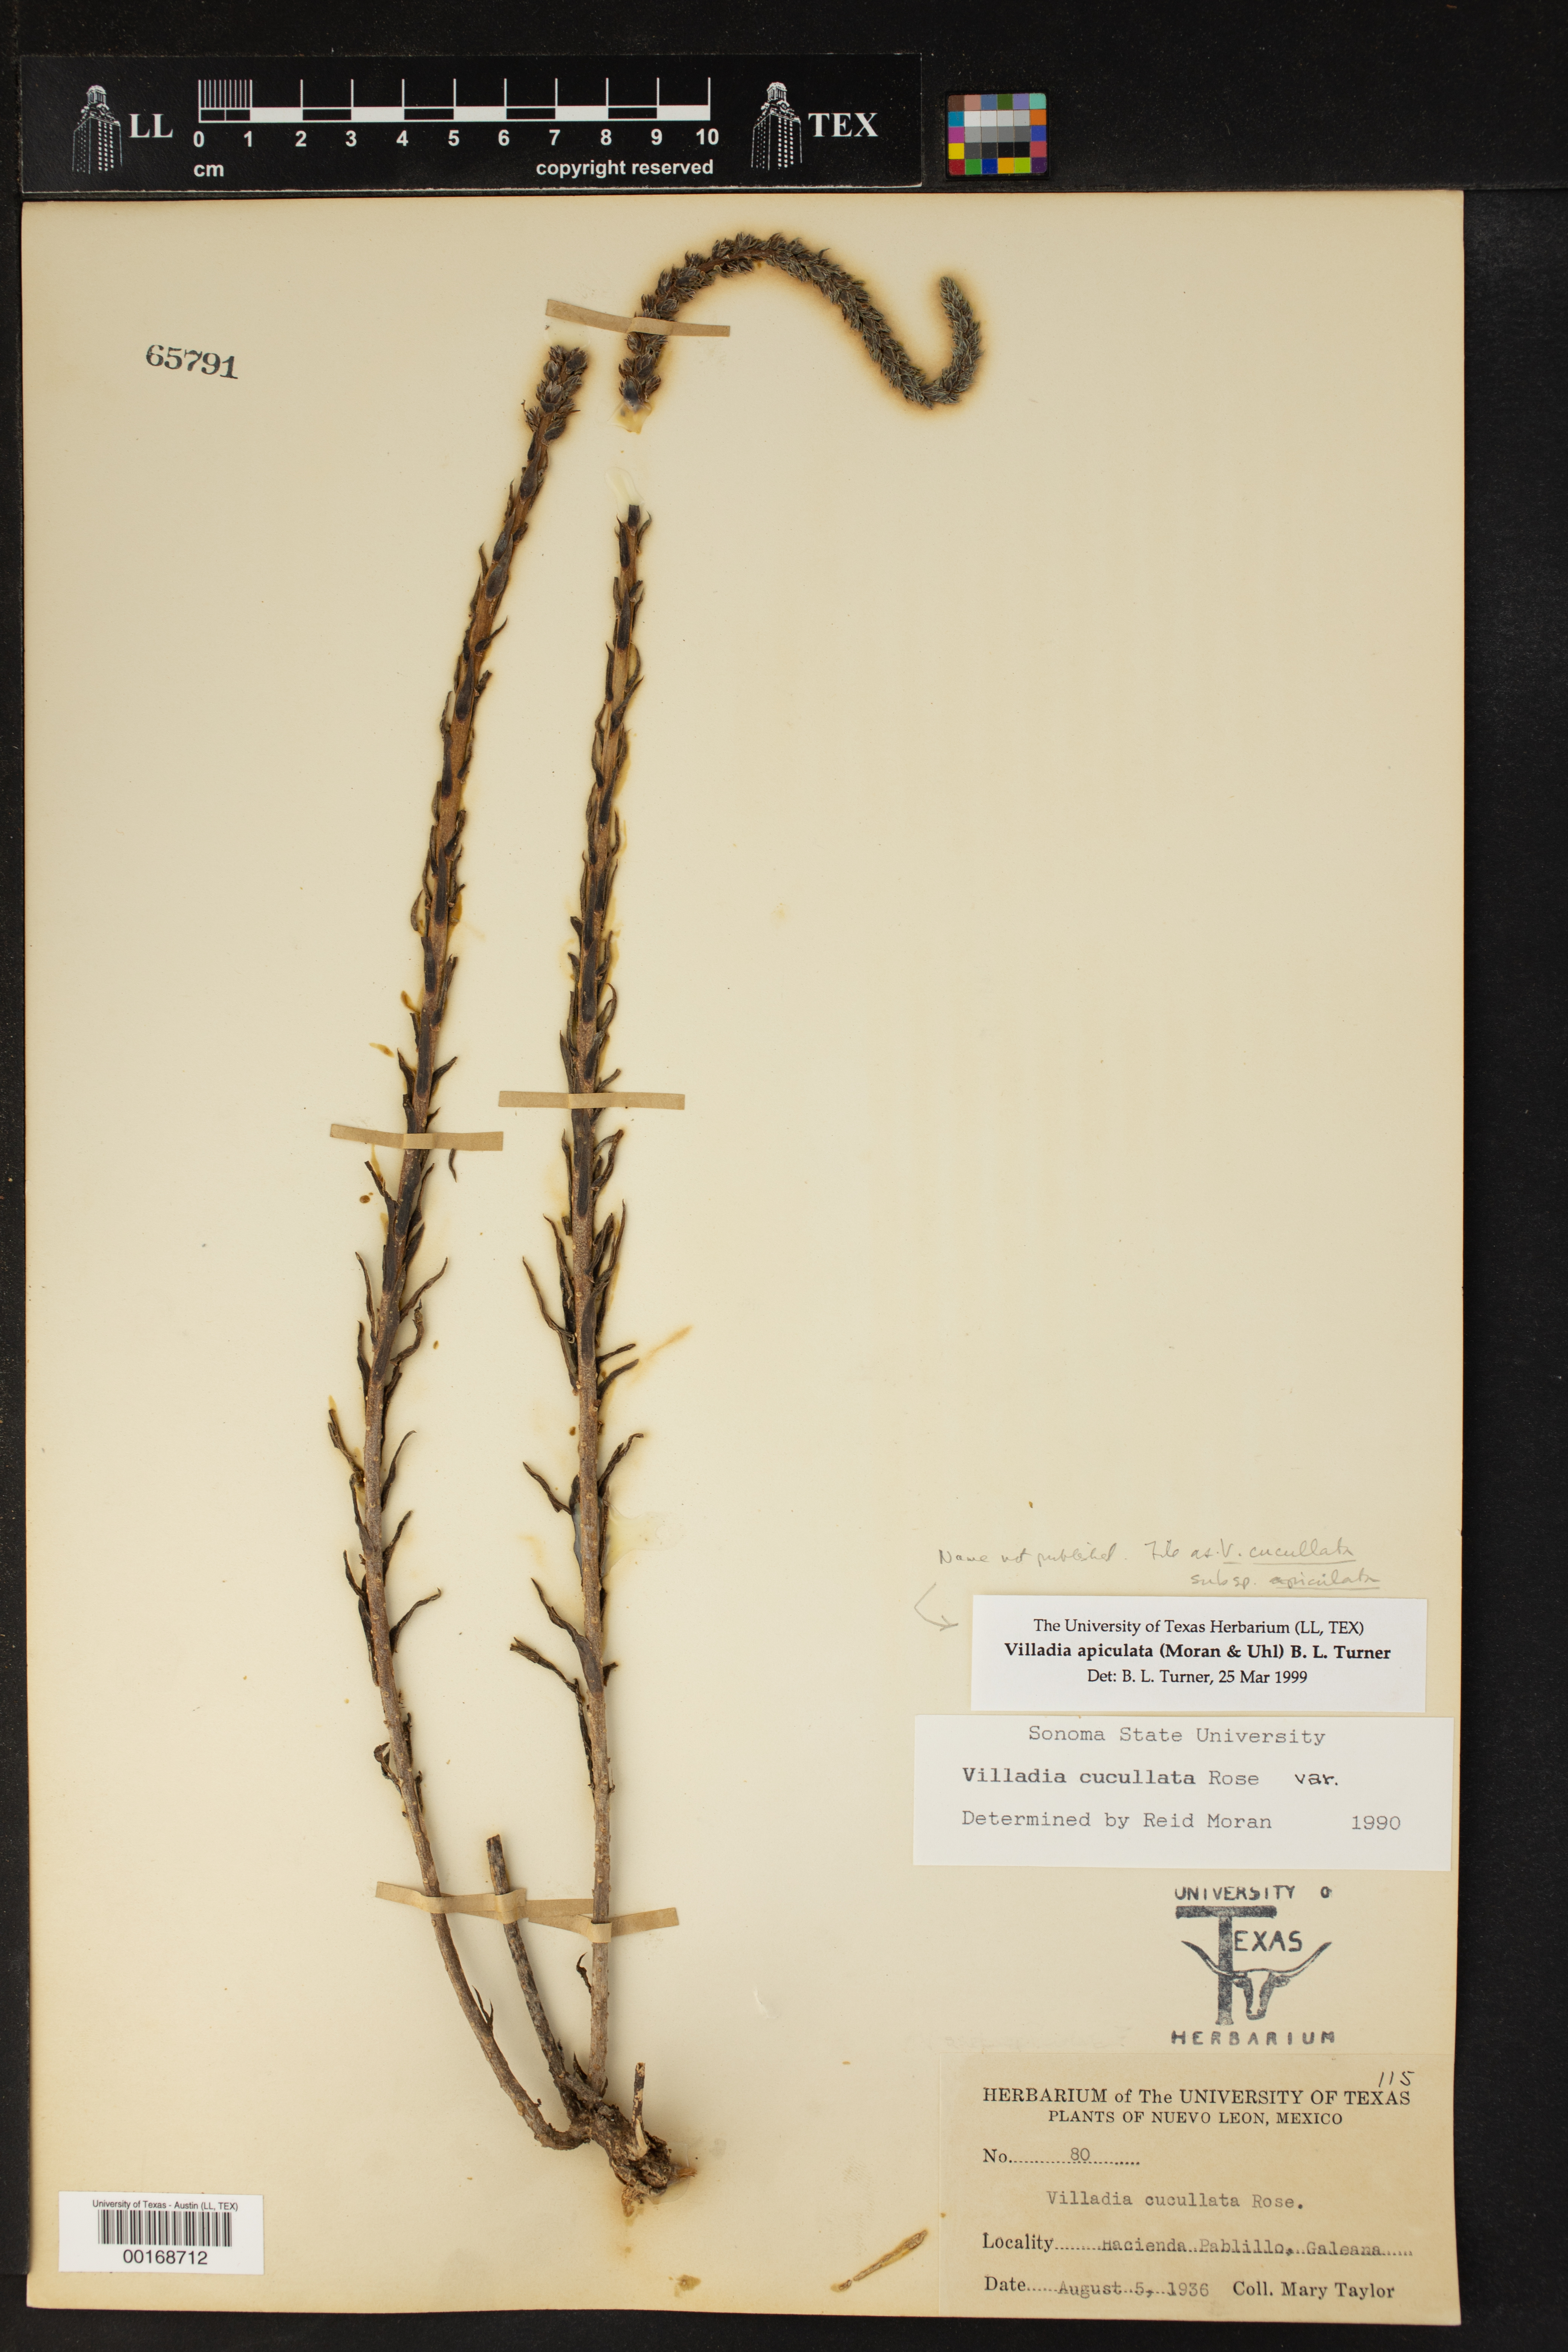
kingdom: Plantae
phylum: Tracheophyta
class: Magnoliopsida
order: Saxifragales
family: Crassulaceae
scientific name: Crassulaceae
